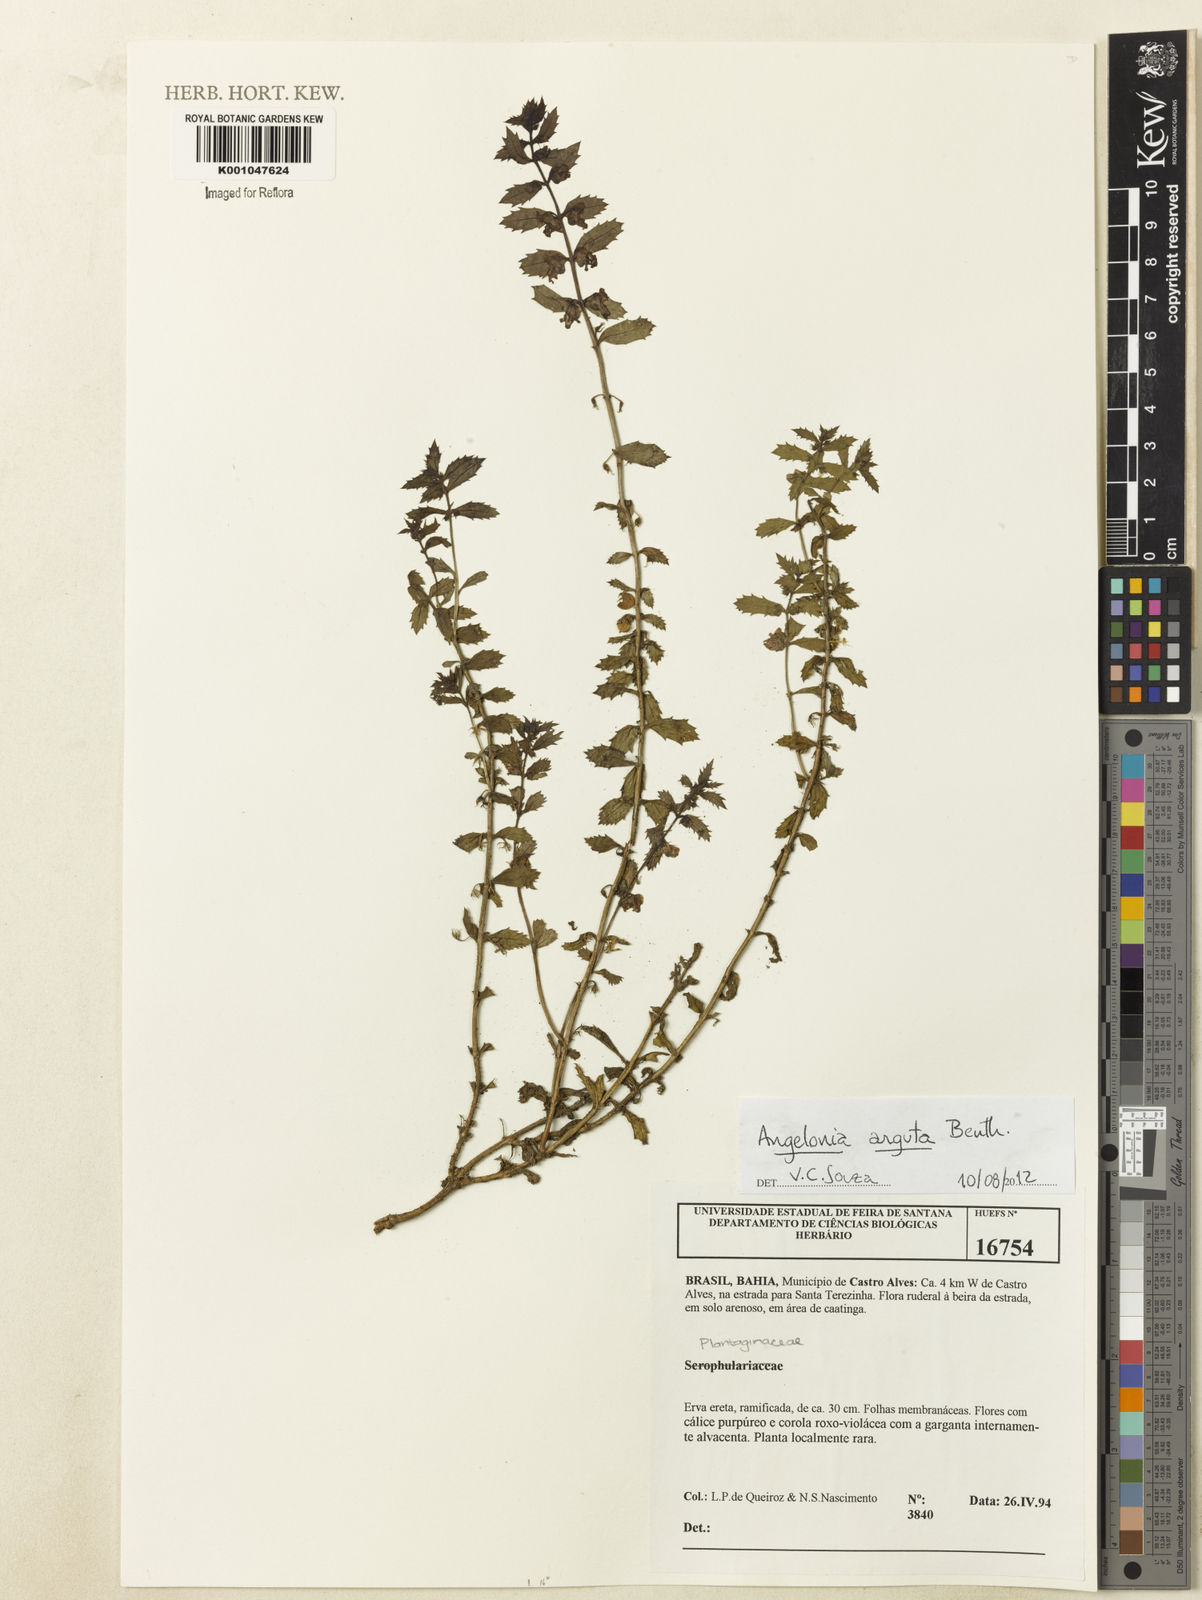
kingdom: Plantae
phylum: Tracheophyta
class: Magnoliopsida
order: Lamiales
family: Plantaginaceae
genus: Angelonia
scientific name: Angelonia arguta
